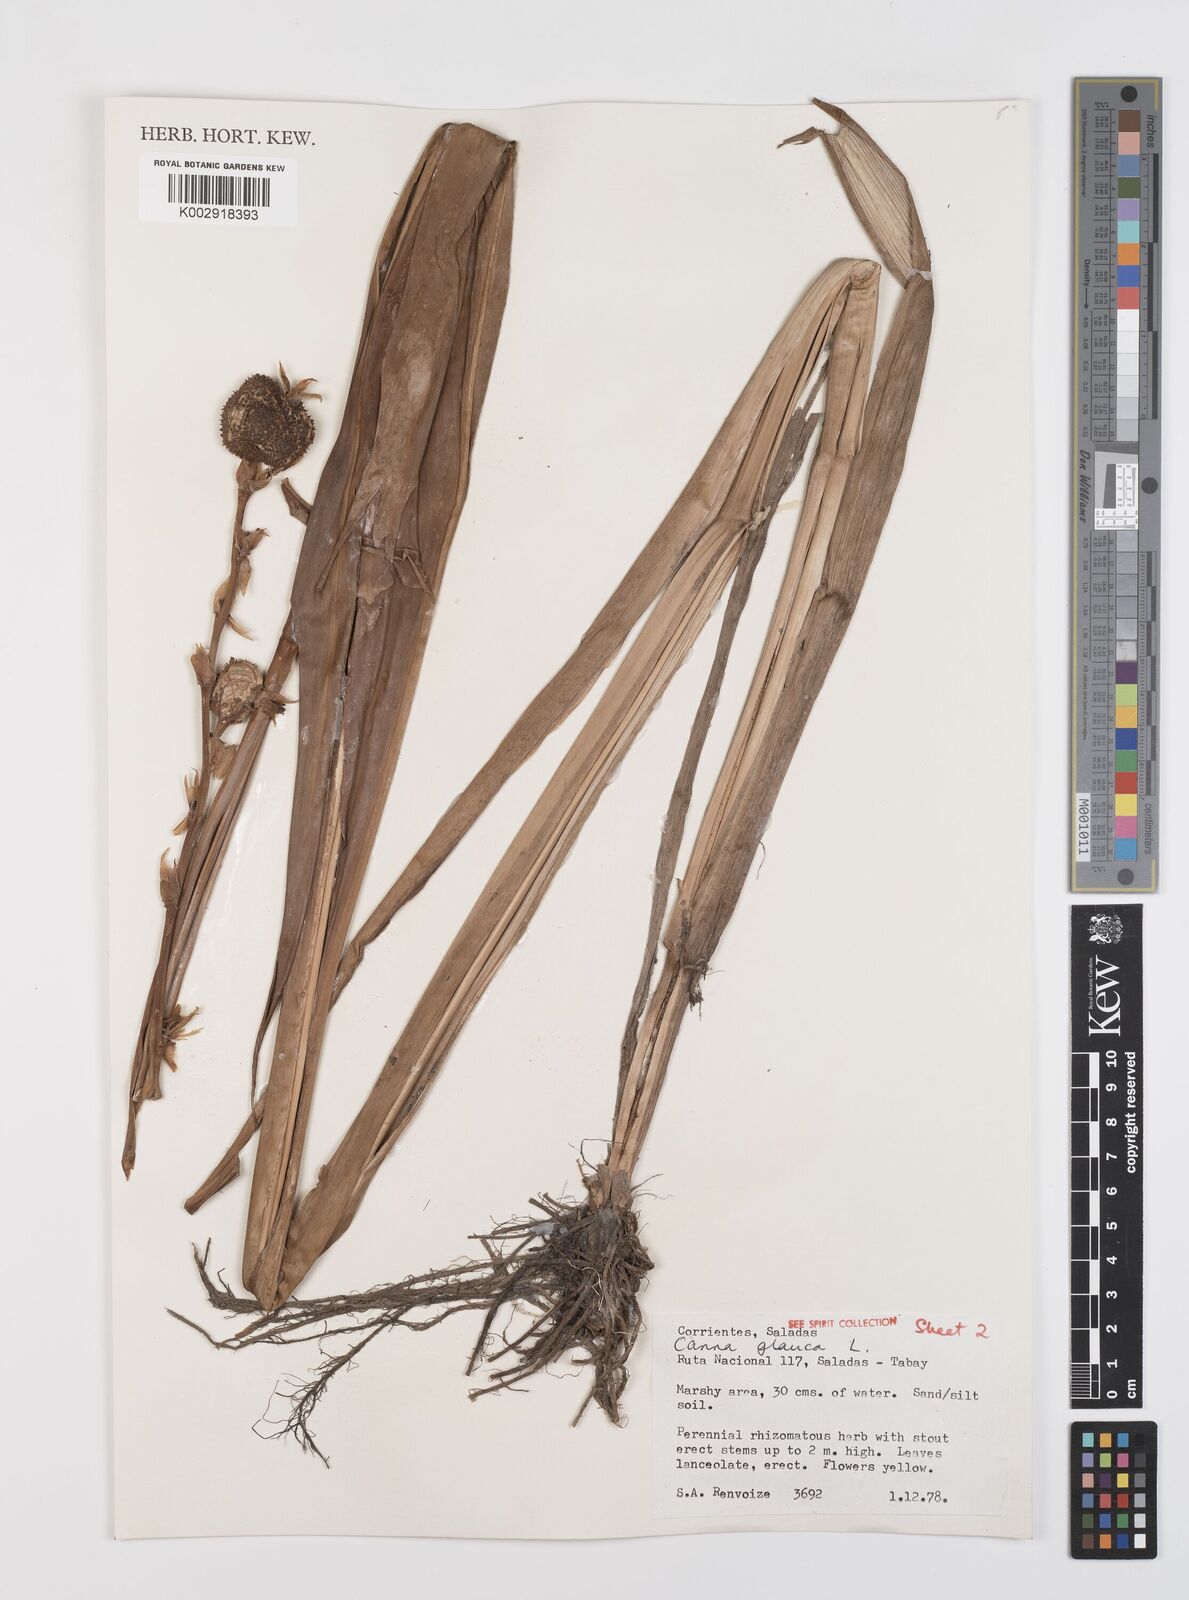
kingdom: Plantae
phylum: Tracheophyta
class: Liliopsida
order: Zingiberales
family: Cannaceae
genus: Canna
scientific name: Canna glauca
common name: Louisiana canna
